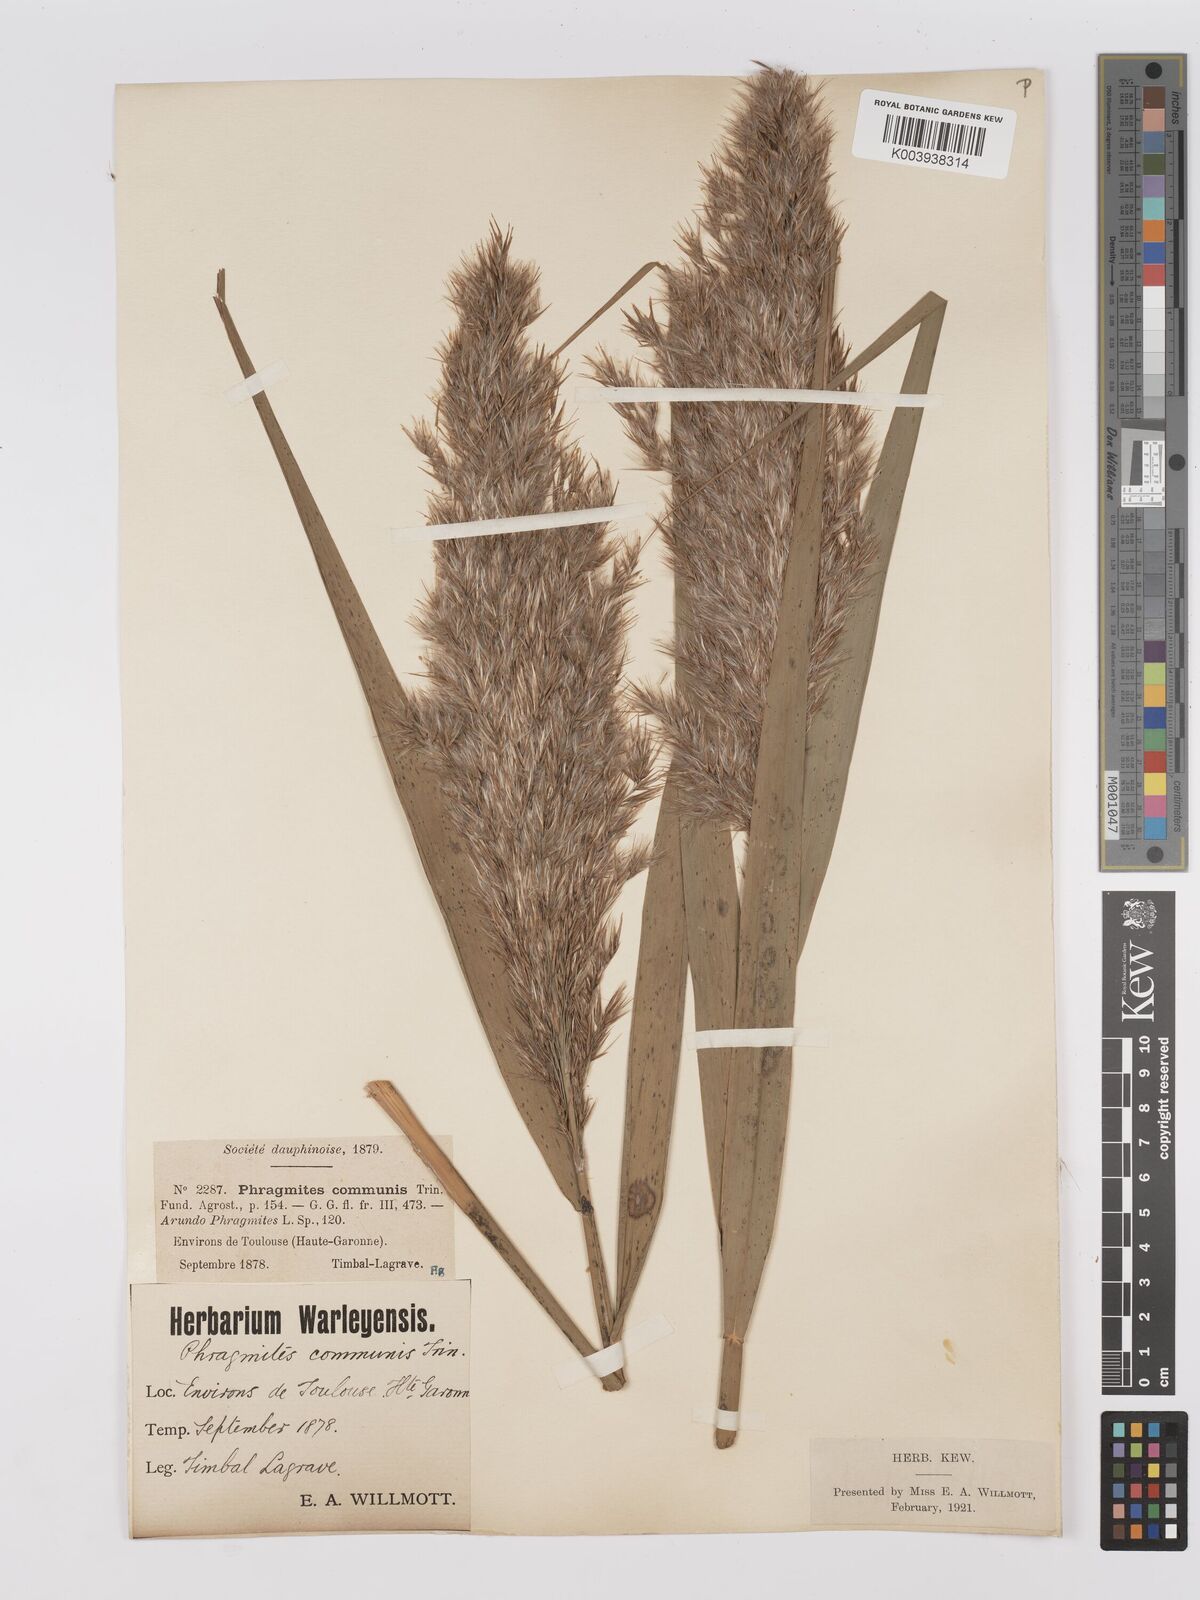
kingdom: Plantae
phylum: Tracheophyta
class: Liliopsida
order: Poales
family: Poaceae
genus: Phragmites
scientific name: Phragmites australis
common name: Common reed
